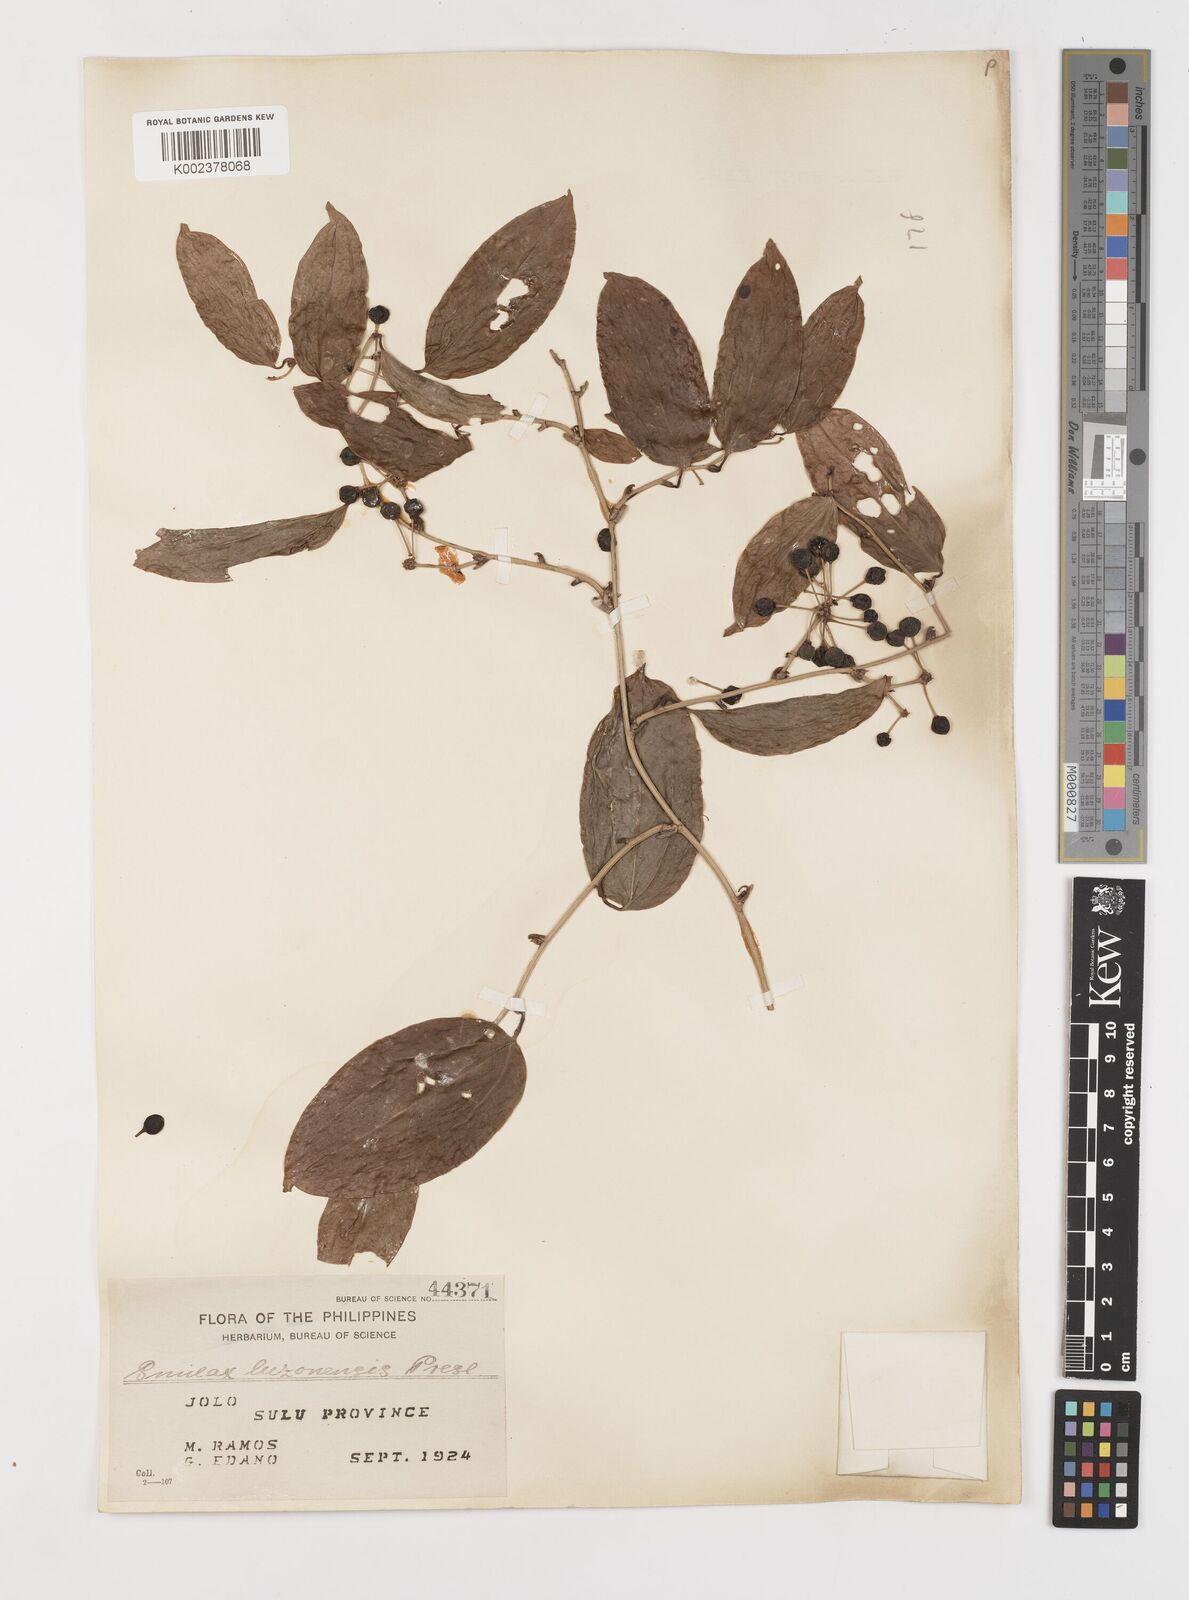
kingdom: Plantae
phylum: Tracheophyta
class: Liliopsida
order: Liliales
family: Smilacaceae
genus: Smilax
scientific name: Smilax luzonensis
